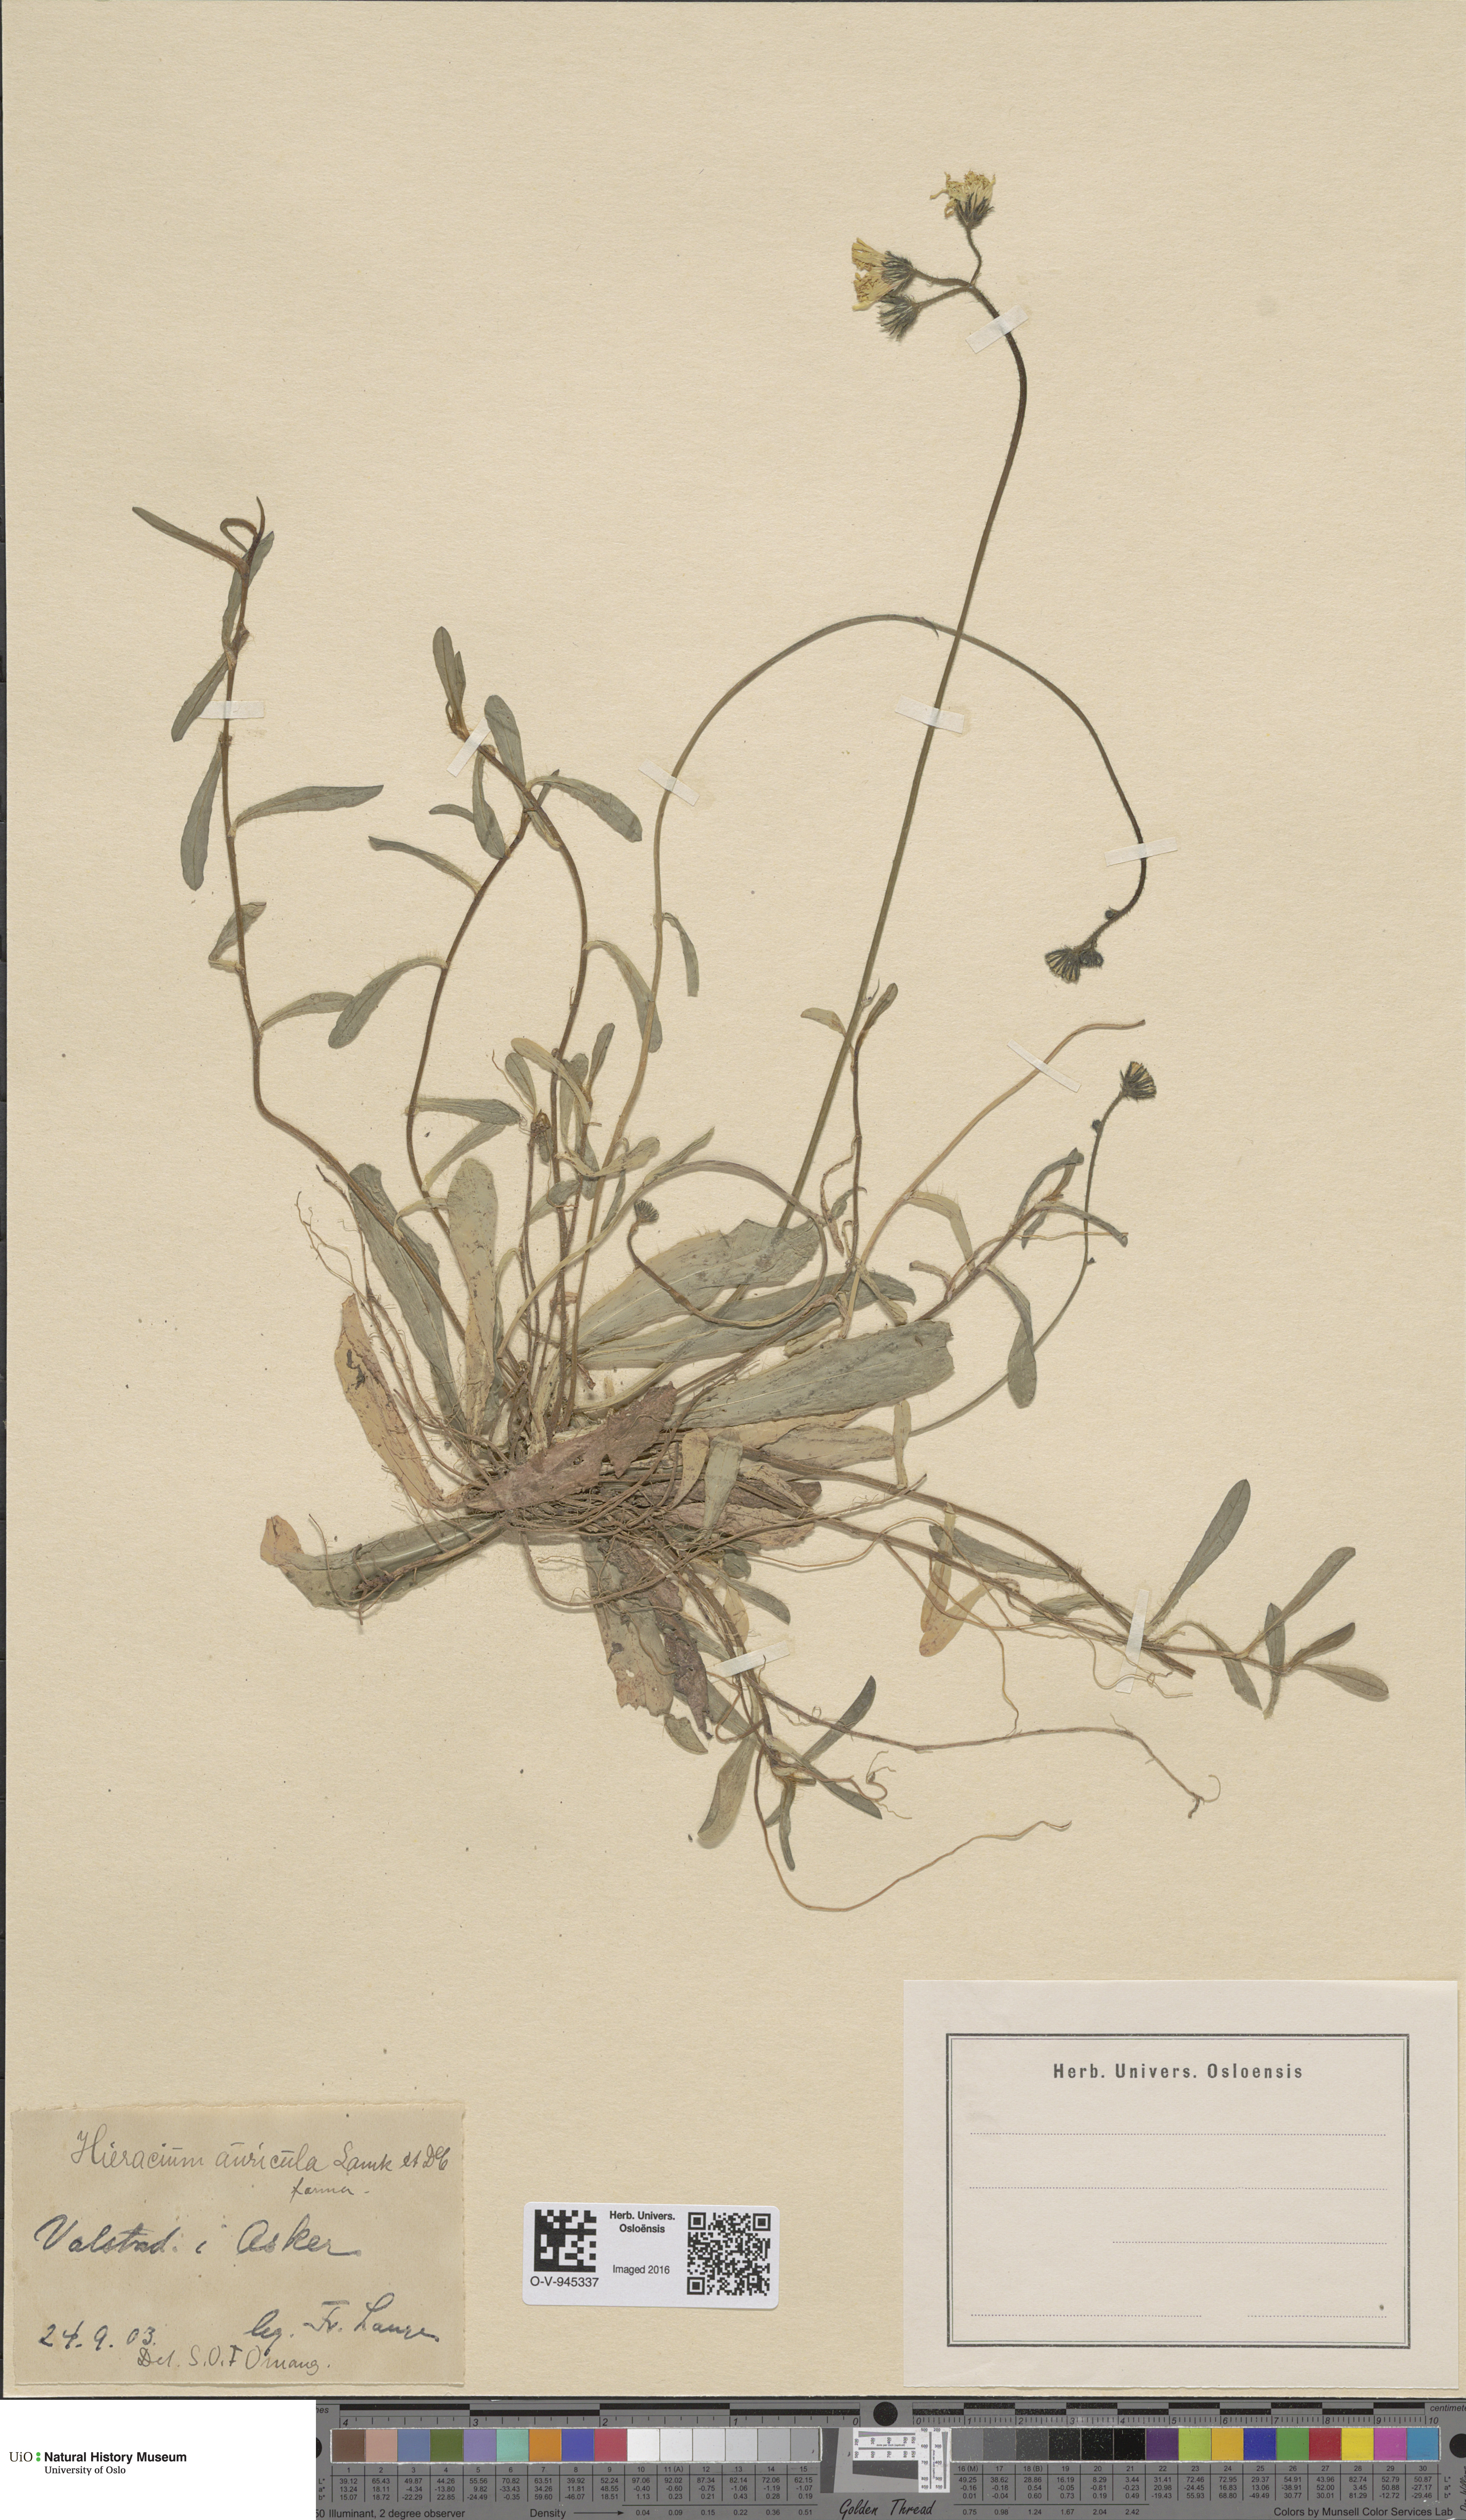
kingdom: Plantae
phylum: Tracheophyta
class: Magnoliopsida
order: Asterales
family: Asteraceae
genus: Pilosella
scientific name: Pilosella lactucella
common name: Glaucous fox-and-cubs
